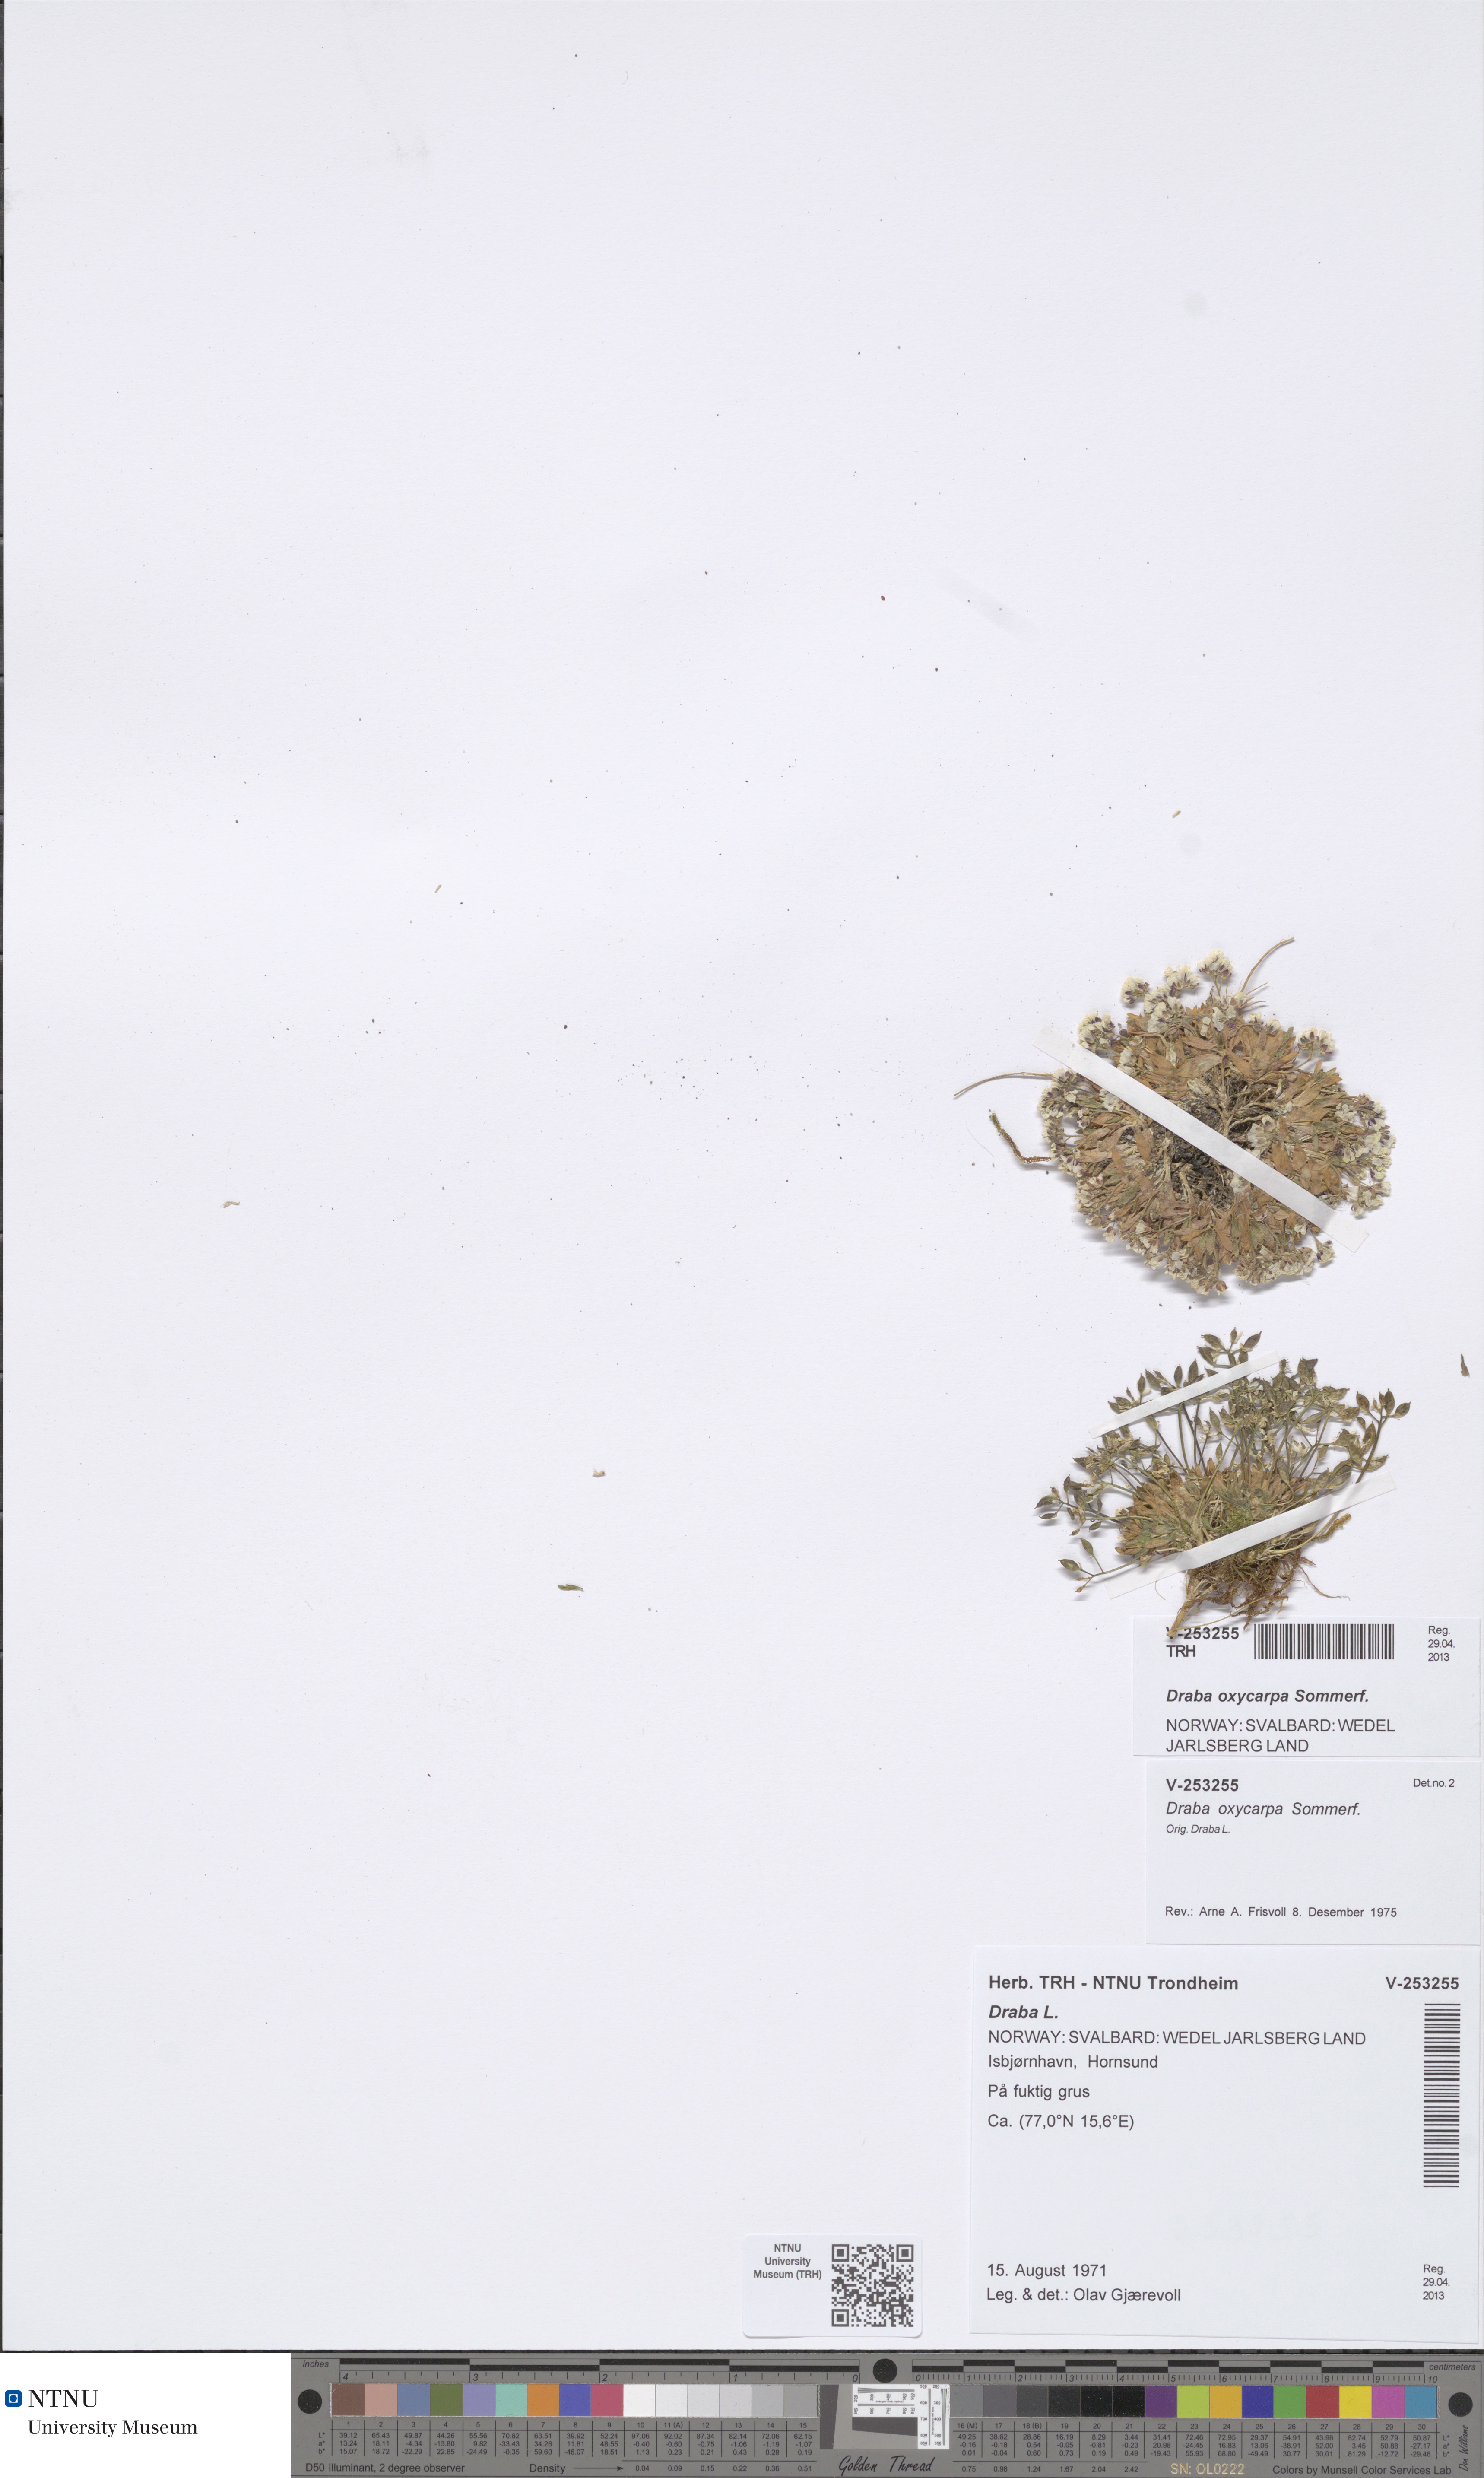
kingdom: Plantae
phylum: Tracheophyta
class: Magnoliopsida
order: Brassicales
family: Brassicaceae
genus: Draba
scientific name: Draba oxycarpa
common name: Sharp-fruited whitlow-grass
